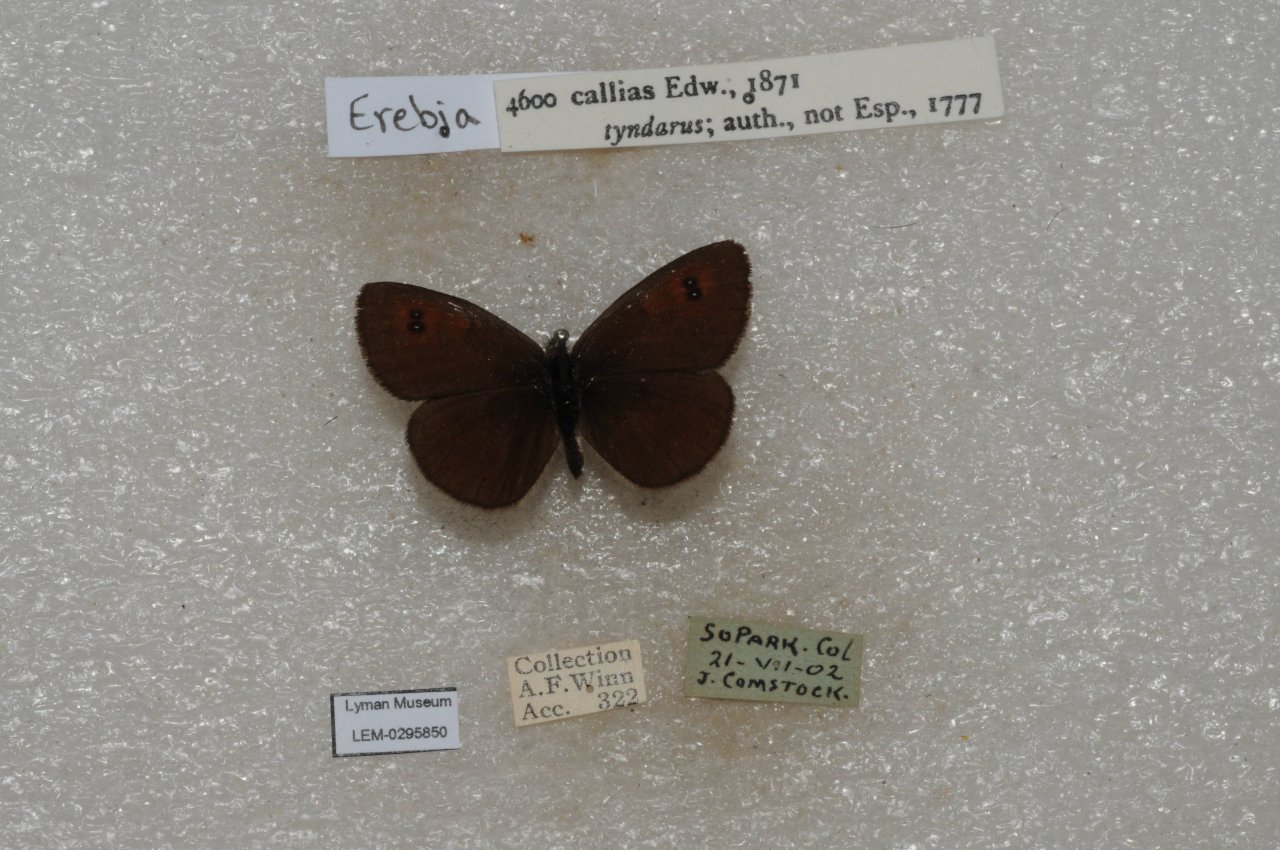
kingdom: Animalia
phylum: Arthropoda
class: Insecta
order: Lepidoptera
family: Nymphalidae
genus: Erebia
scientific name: Erebia tyndarus
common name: Colorado Alpine
